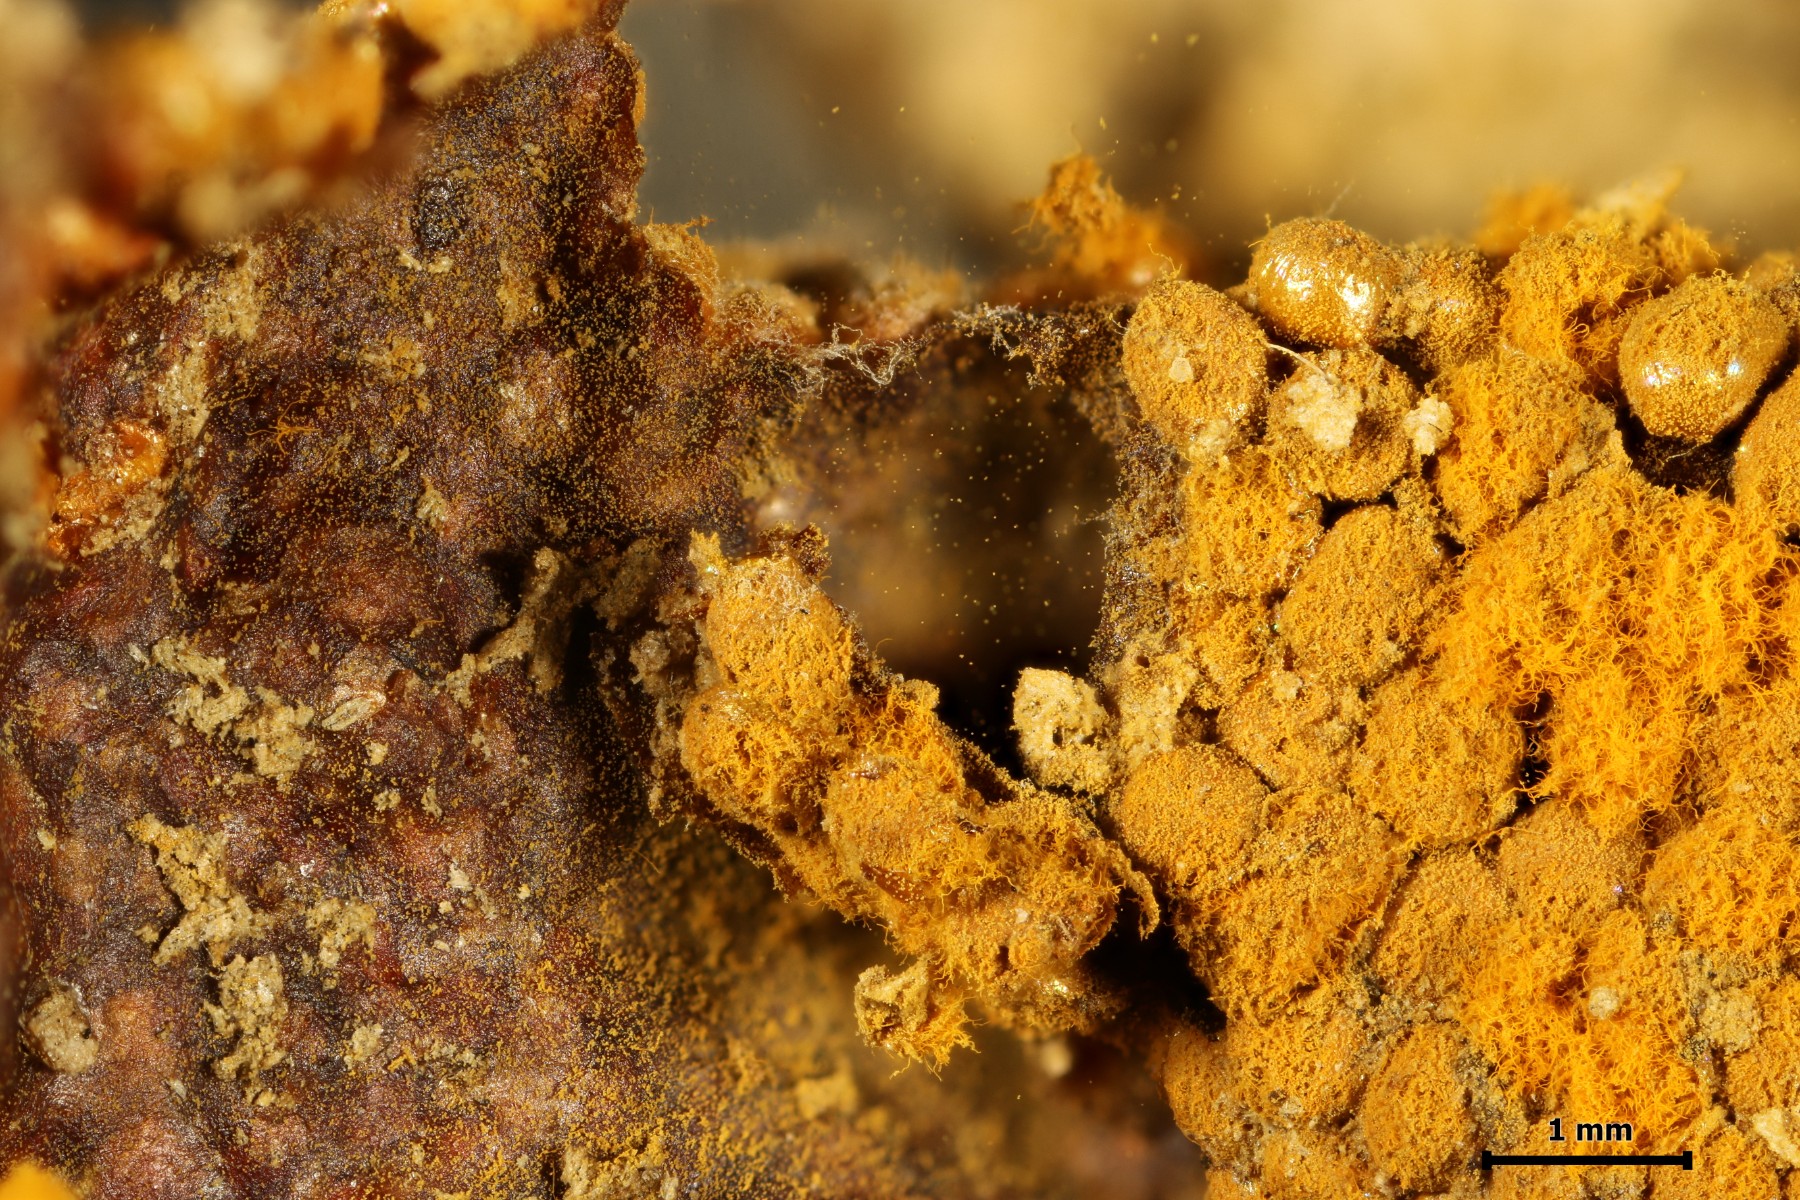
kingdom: Protozoa
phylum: Mycetozoa
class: Myxomycetes
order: Trichiales
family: Trichiaceae
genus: Trichia
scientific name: Trichia scabra
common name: tæppe-hårbold
